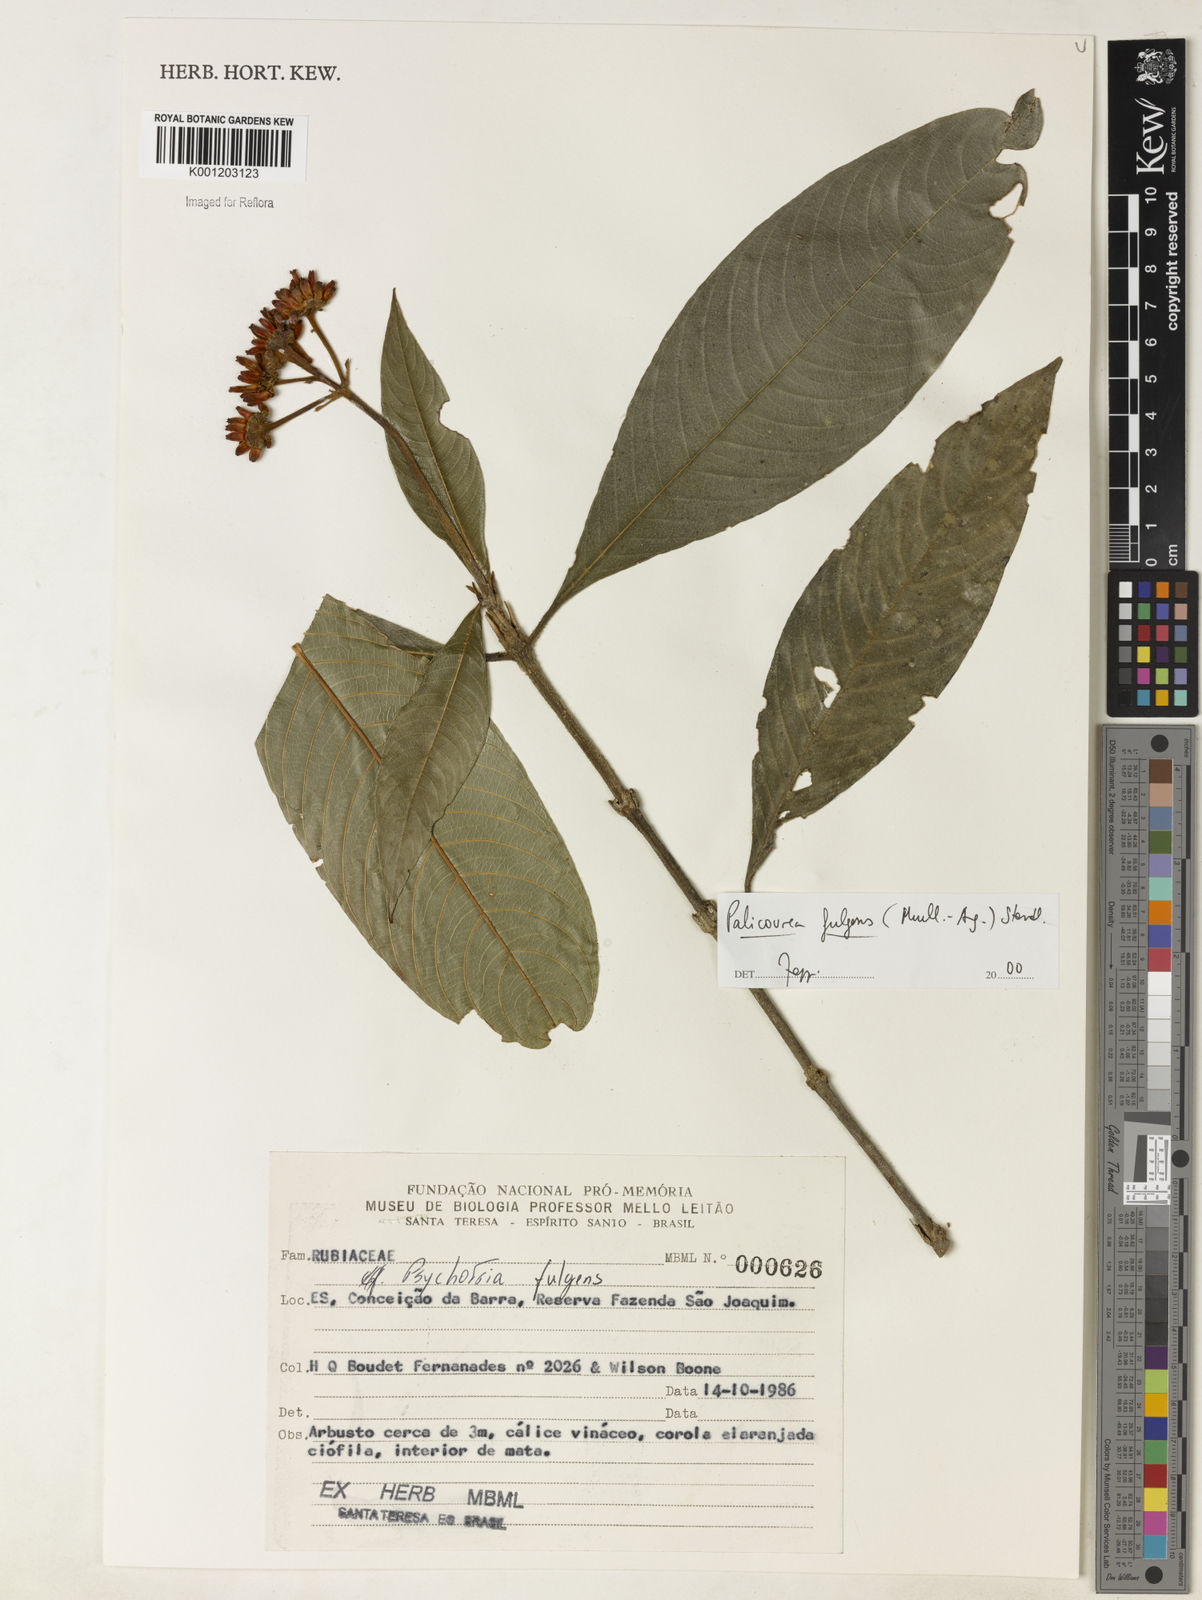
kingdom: Plantae
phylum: Tracheophyta
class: Magnoliopsida
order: Gentianales
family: Rubiaceae
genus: Palicourea
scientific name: Palicourea
